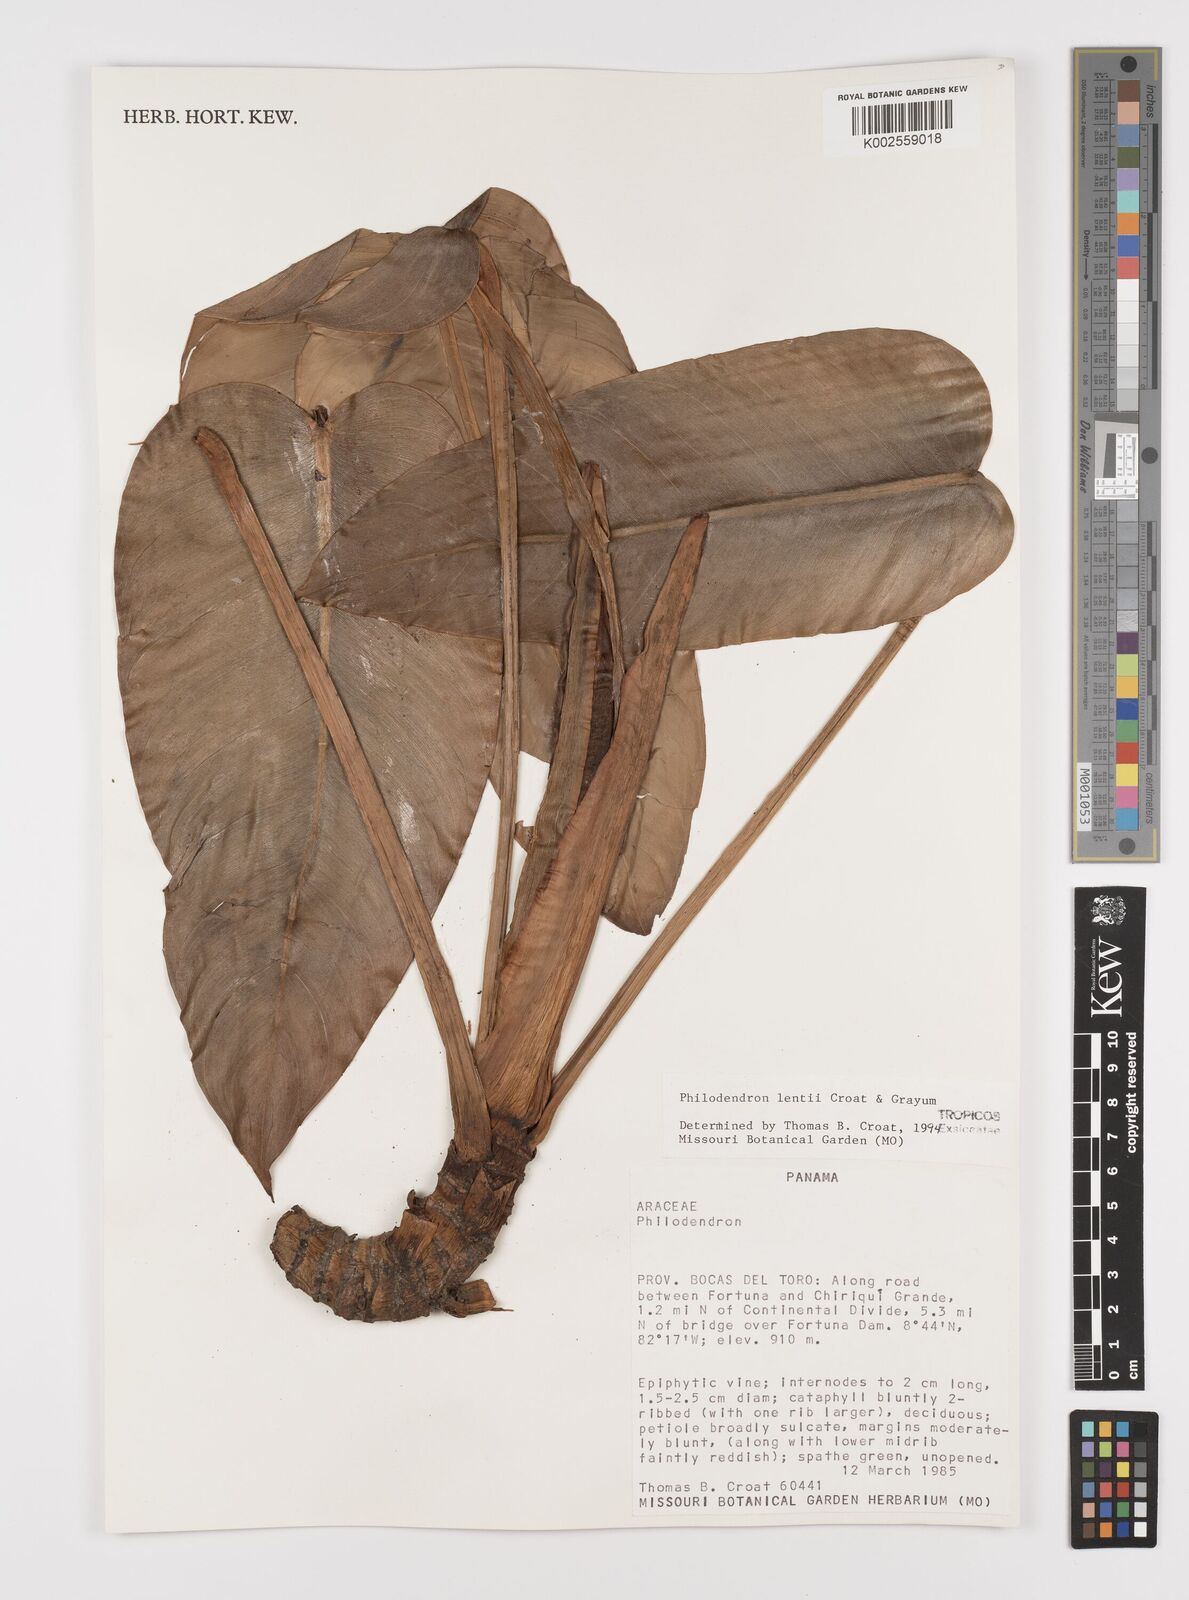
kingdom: Plantae
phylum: Tracheophyta
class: Liliopsida
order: Alismatales
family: Araceae
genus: Philodendron
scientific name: Philodendron lentii
